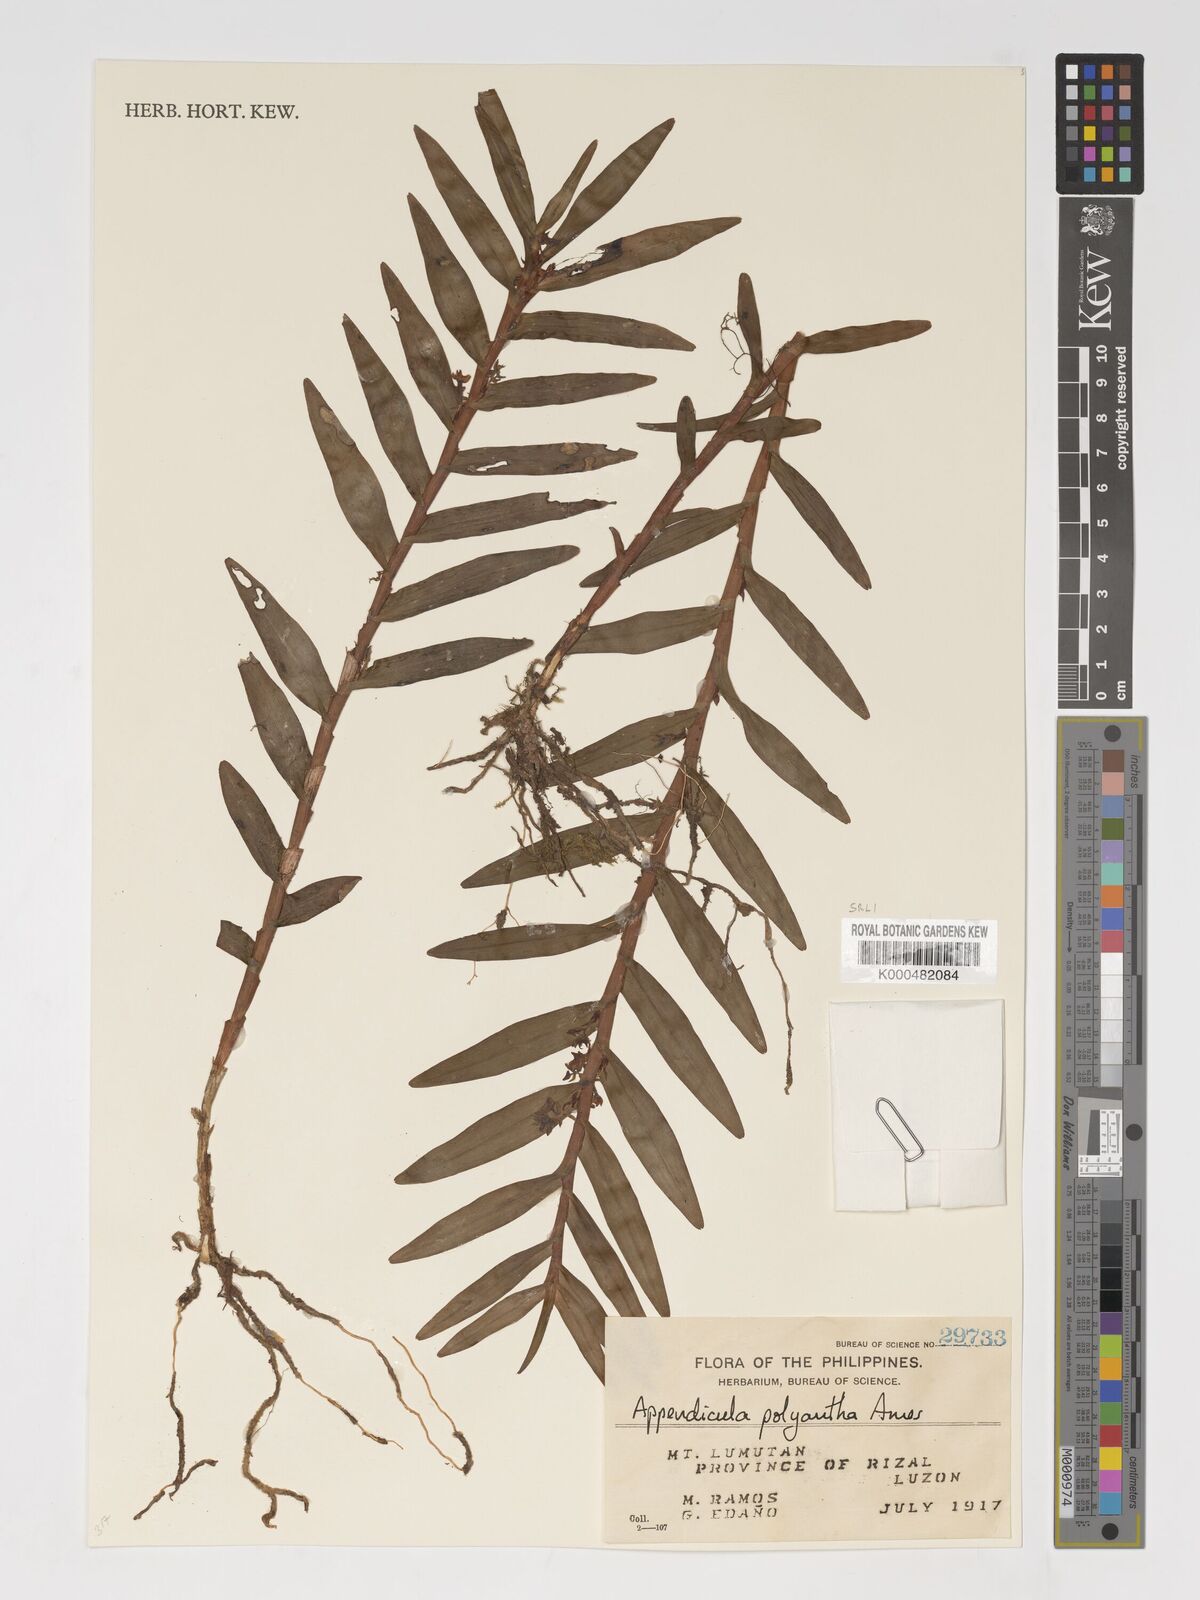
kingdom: Plantae
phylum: Tracheophyta
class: Liliopsida
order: Asparagales
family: Orchidaceae
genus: Appendicula
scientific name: Appendicula polyantha
